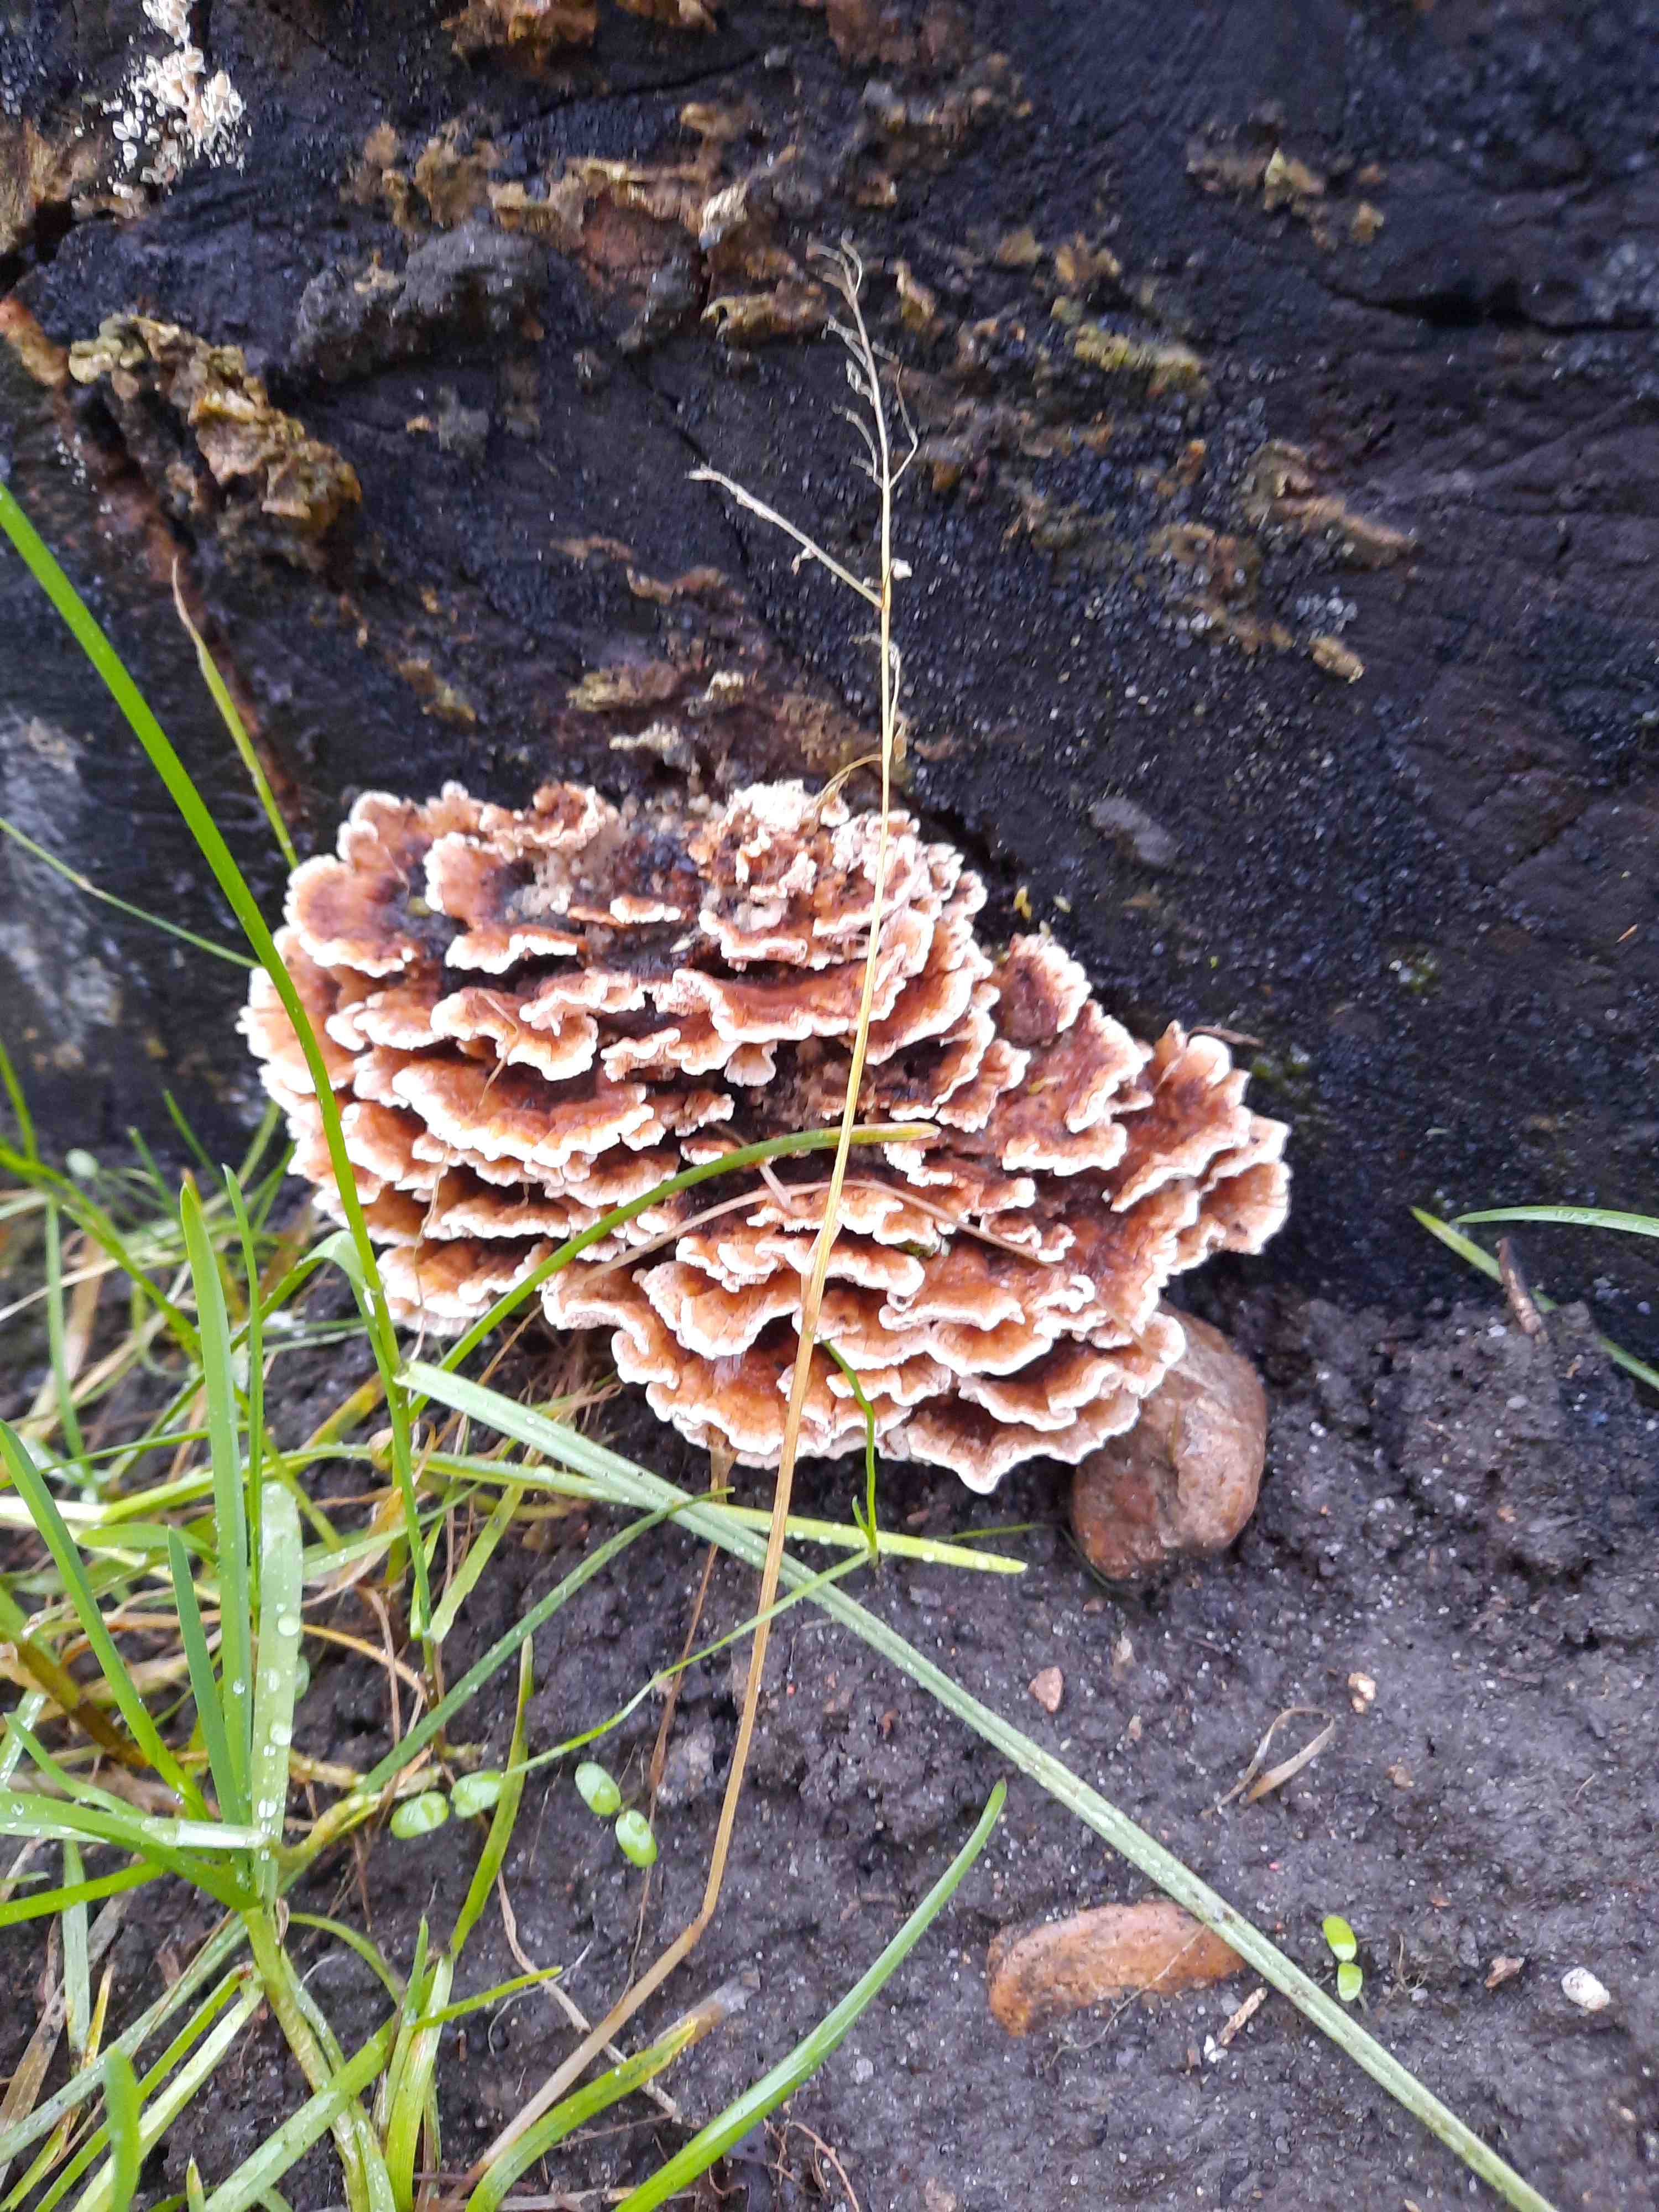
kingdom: Fungi
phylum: Basidiomycota
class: Agaricomycetes
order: Polyporales
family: Polyporaceae
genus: Trametes
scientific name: Trametes versicolor
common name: broget læderporesvamp
